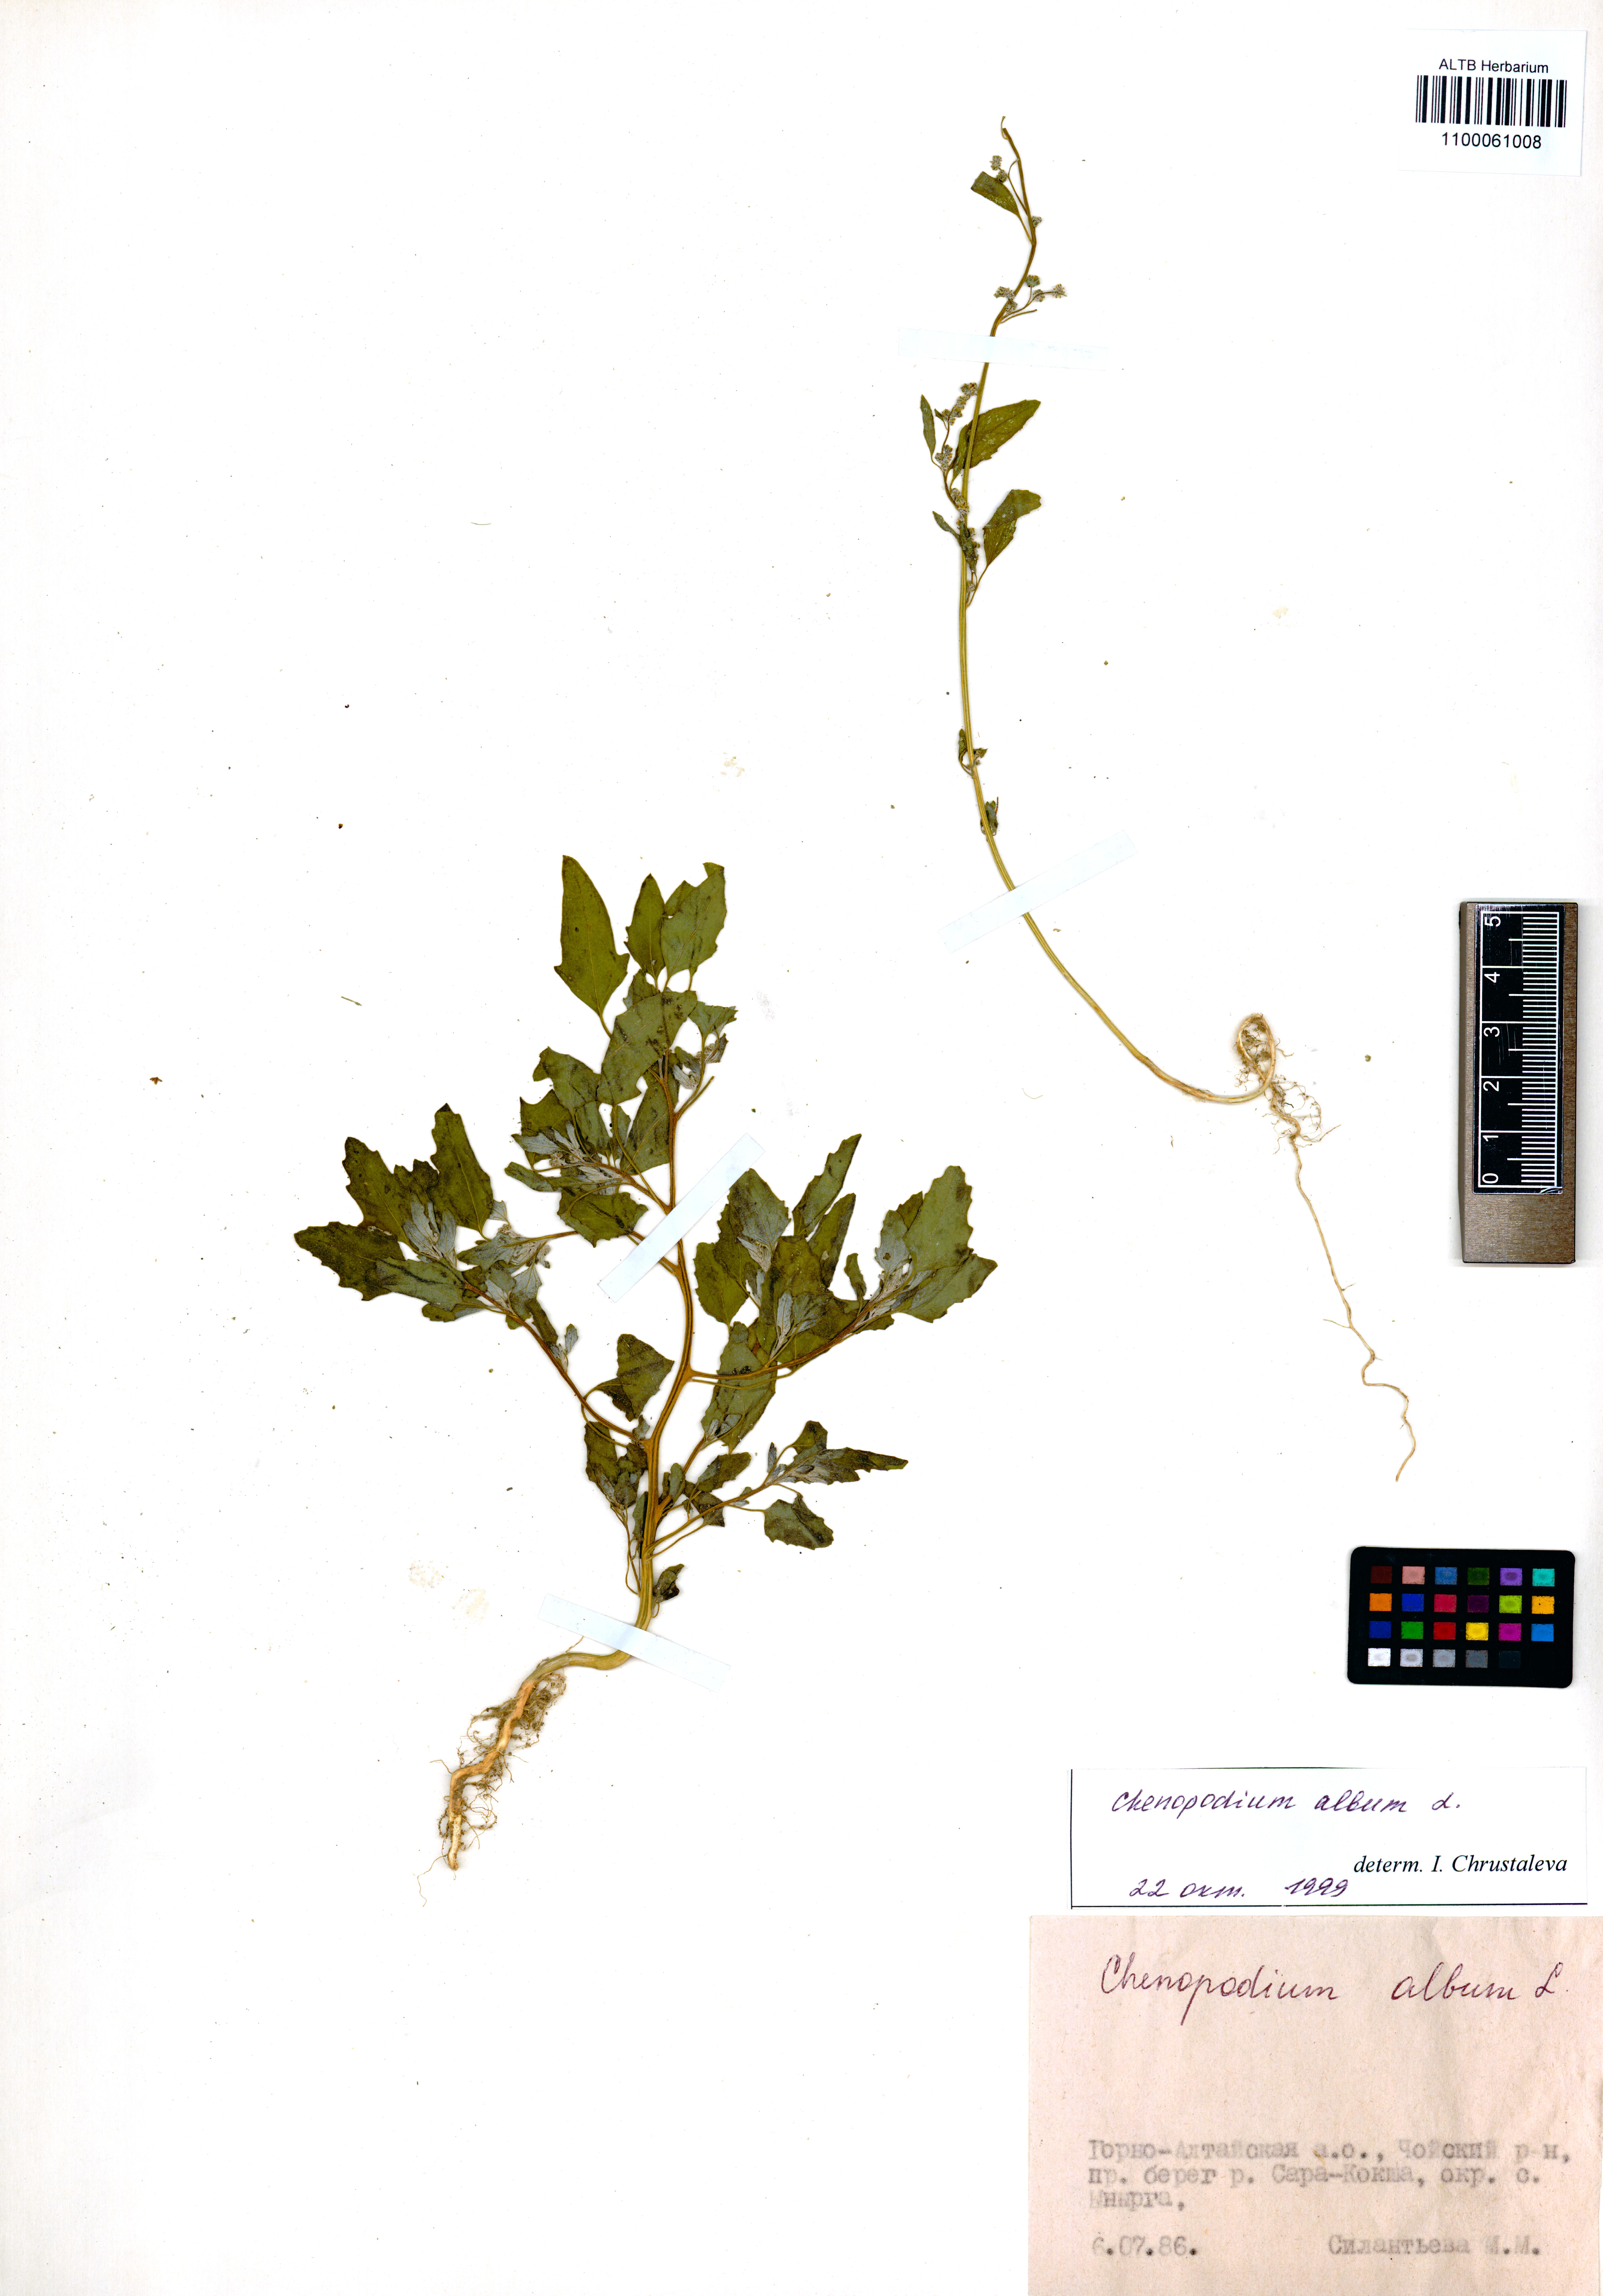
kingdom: Plantae
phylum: Tracheophyta
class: Magnoliopsida
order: Caryophyllales
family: Amaranthaceae
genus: Chenopodium
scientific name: Chenopodium album
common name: Fat-hen
